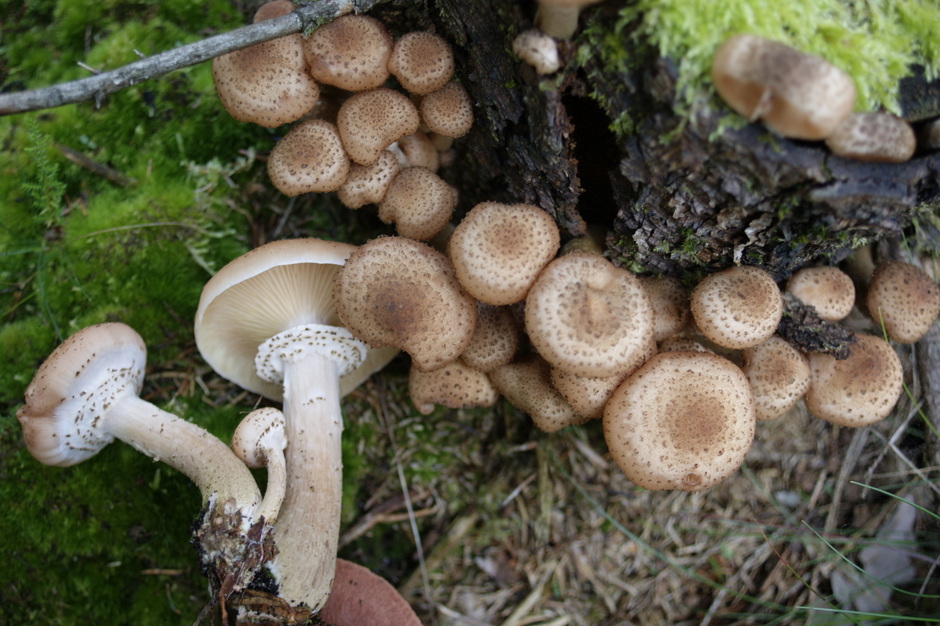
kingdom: Fungi
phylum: Basidiomycota
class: Agaricomycetes
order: Agaricales
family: Physalacriaceae
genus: Armillaria
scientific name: Armillaria ostoyae
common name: mørk honningsvamp
